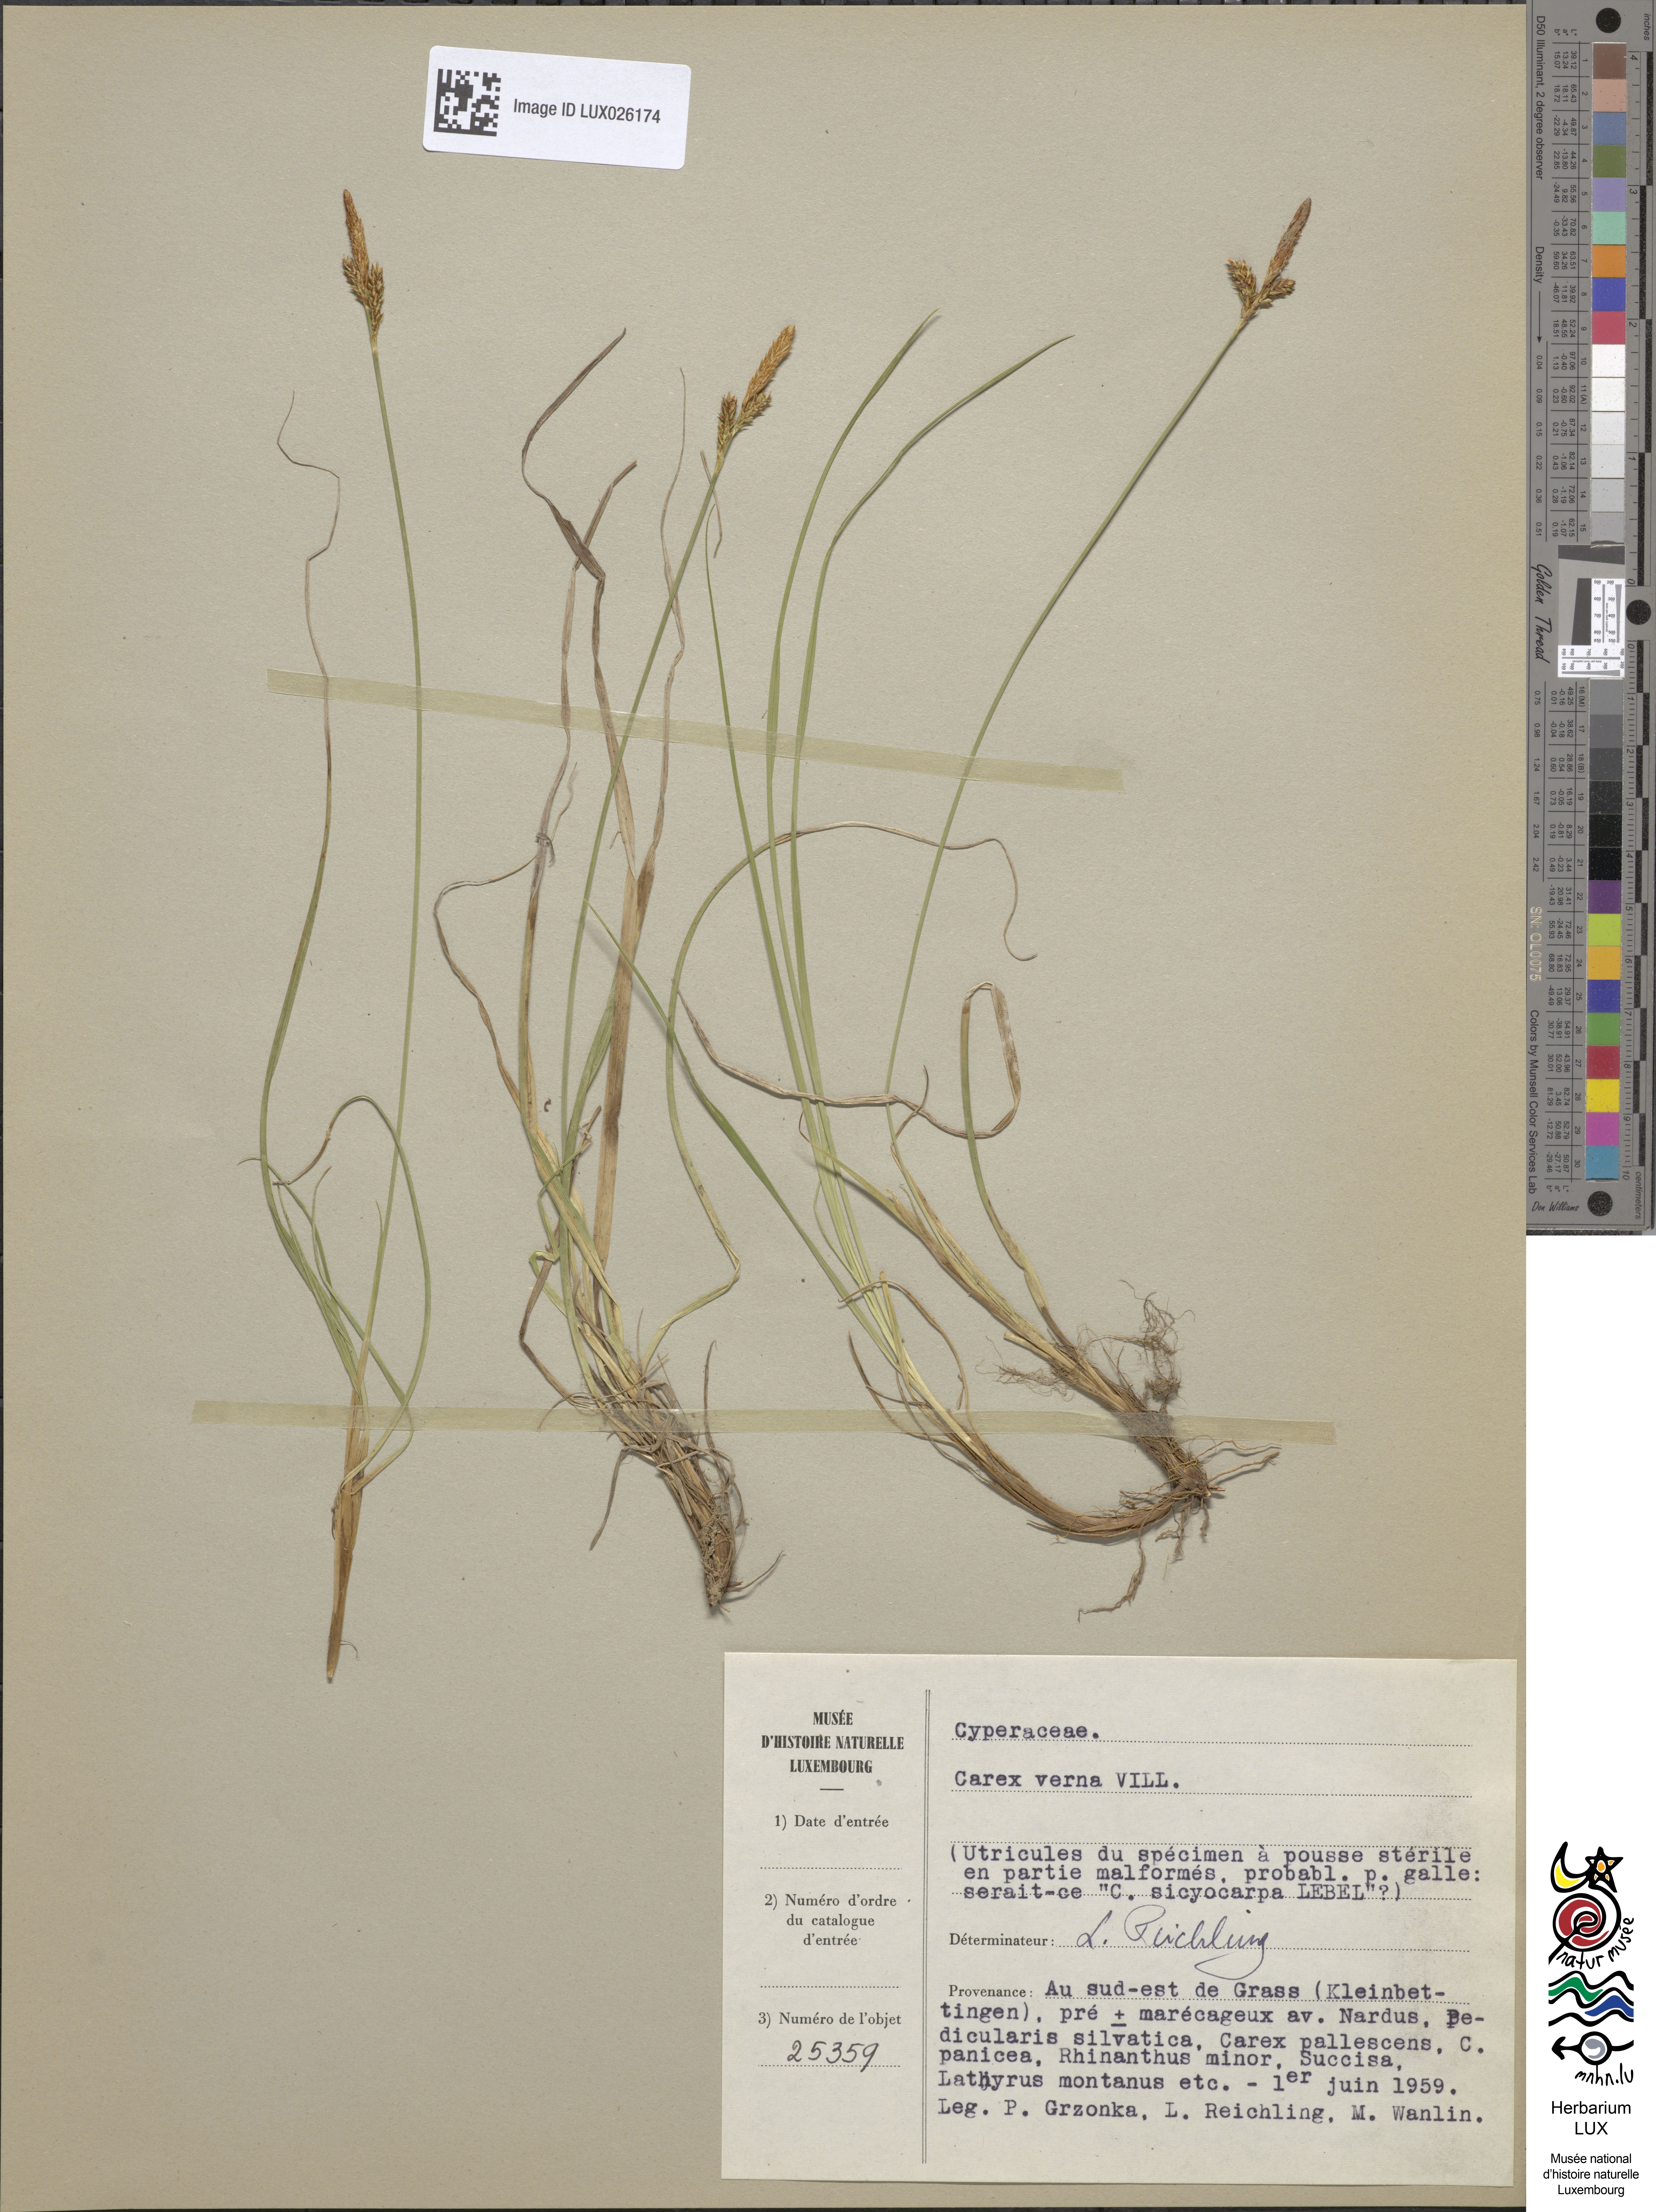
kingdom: Plantae
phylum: Tracheophyta
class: Liliopsida
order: Poales
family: Cyperaceae
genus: Carex
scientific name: Carex
